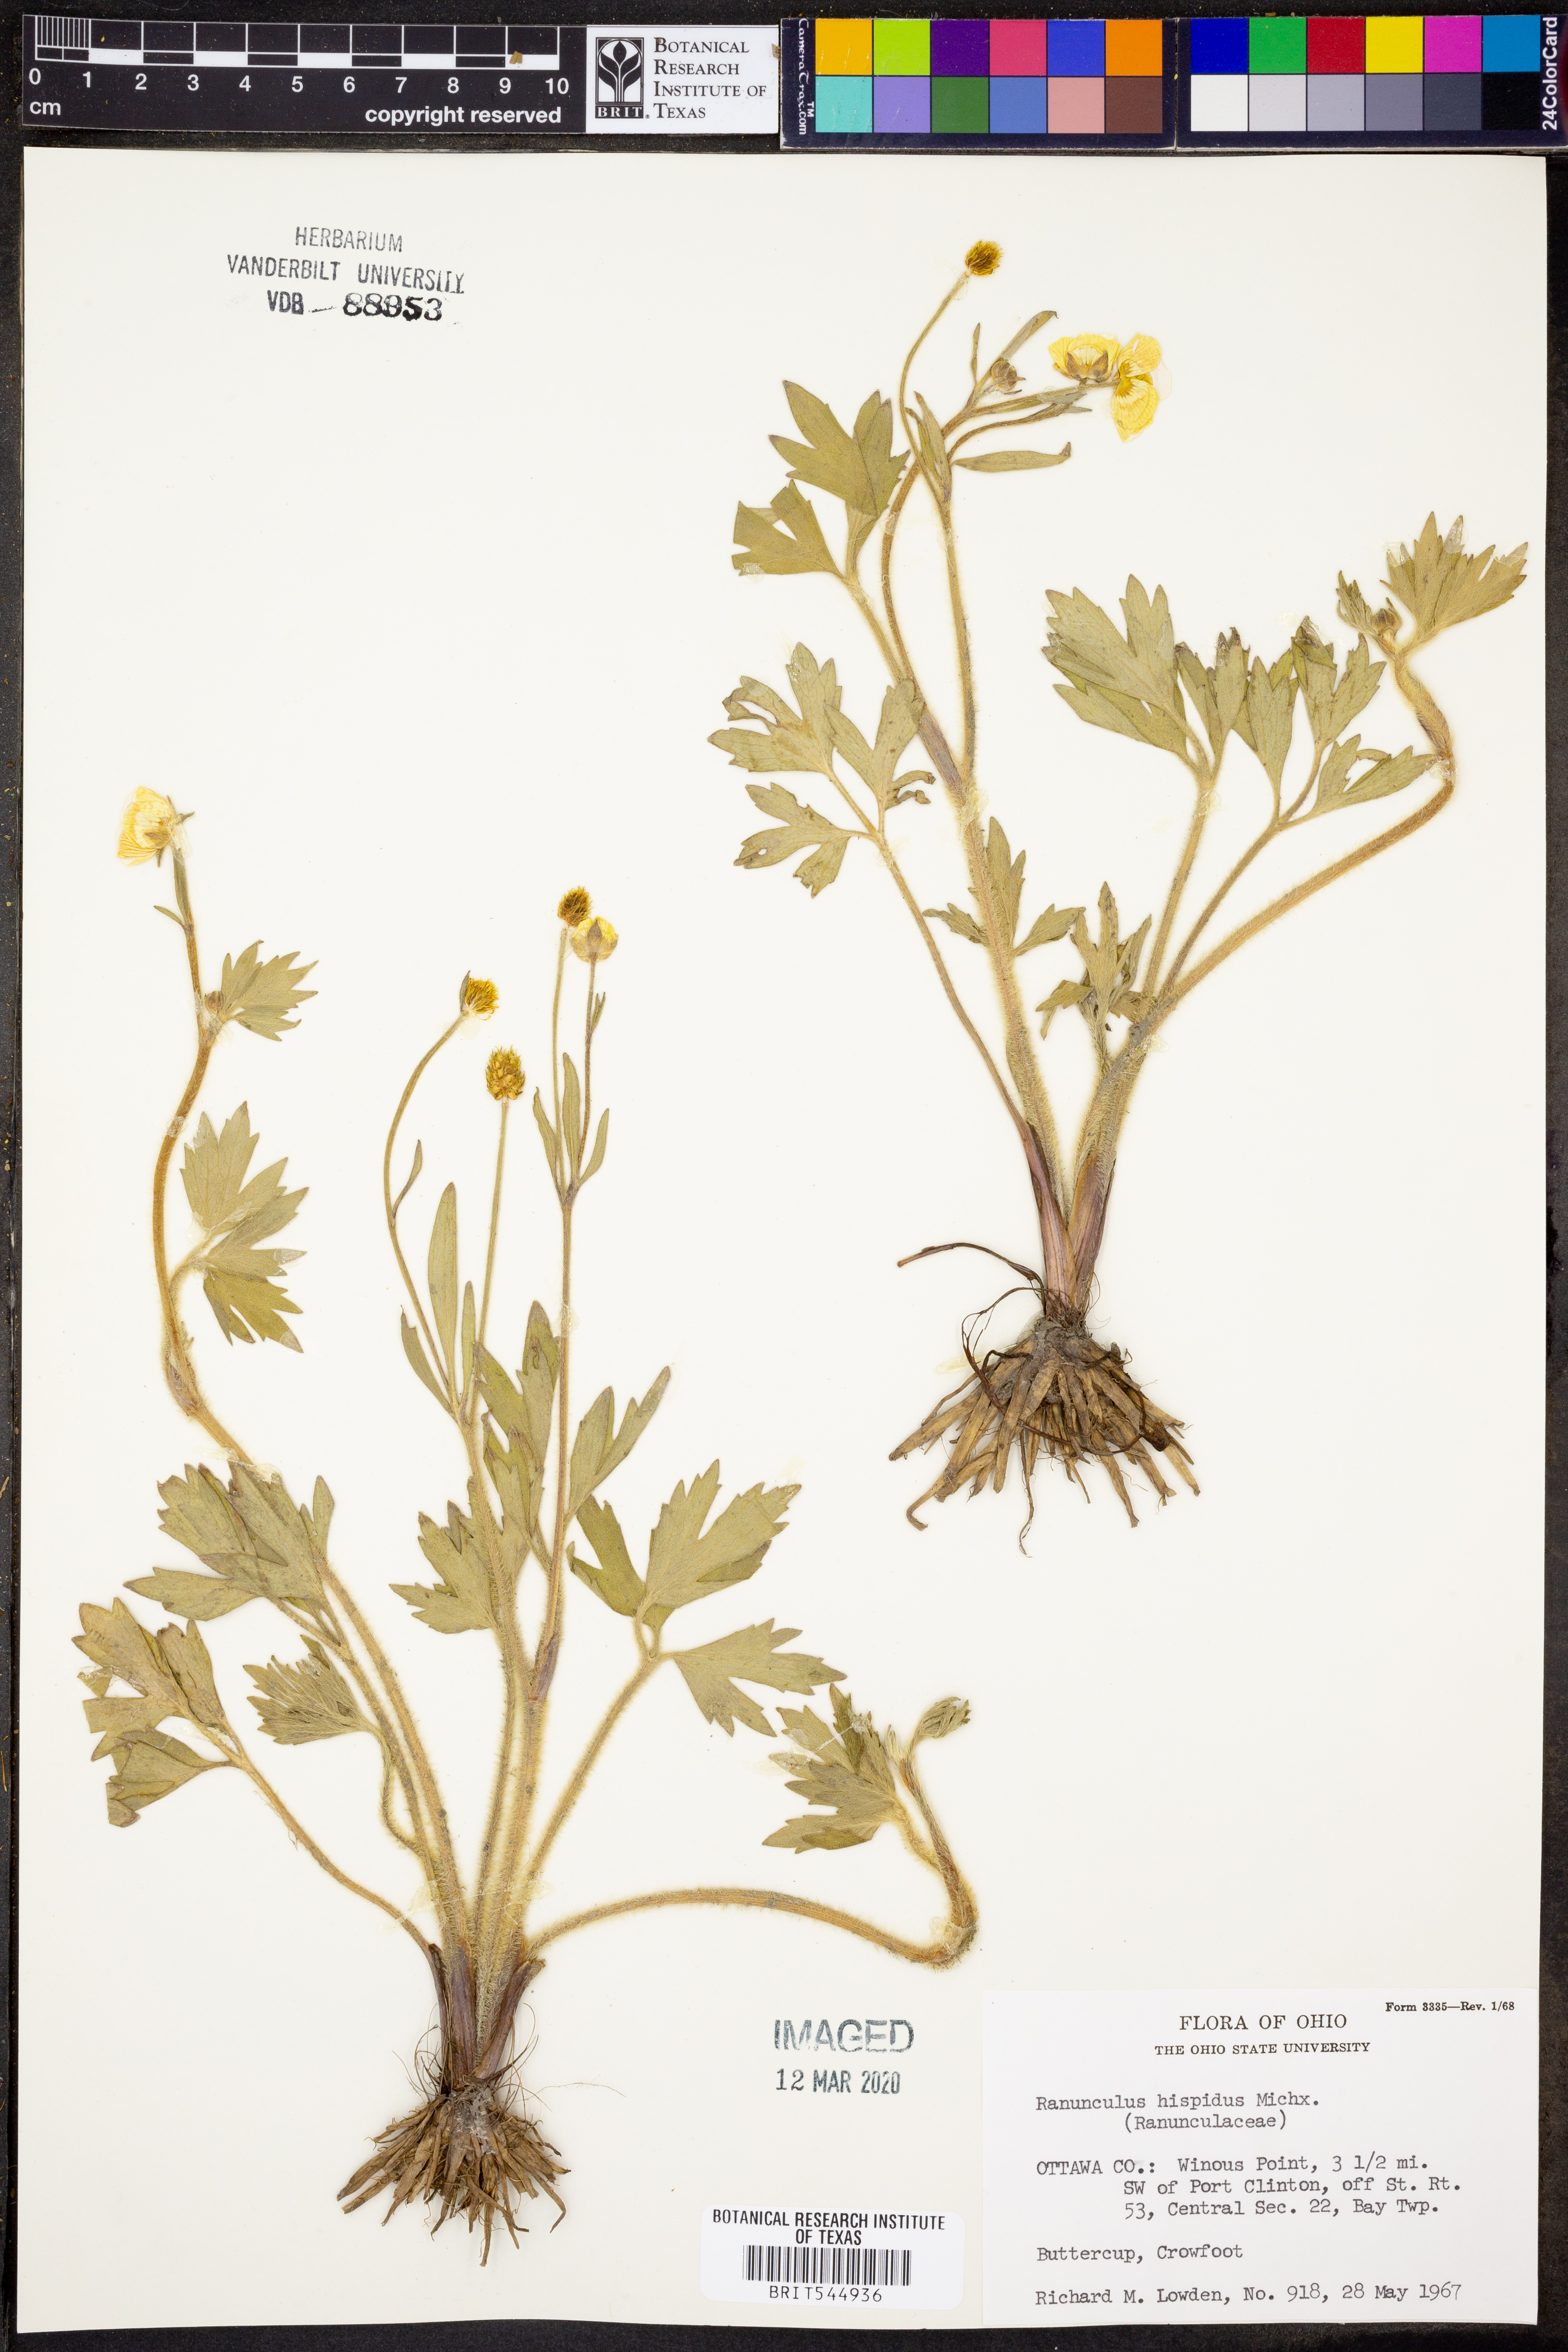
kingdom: Plantae
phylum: Tracheophyta
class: Magnoliopsida
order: Ranunculales
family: Ranunculaceae
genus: Ranunculus
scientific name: Ranunculus hispidus
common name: Bristly buttercup
